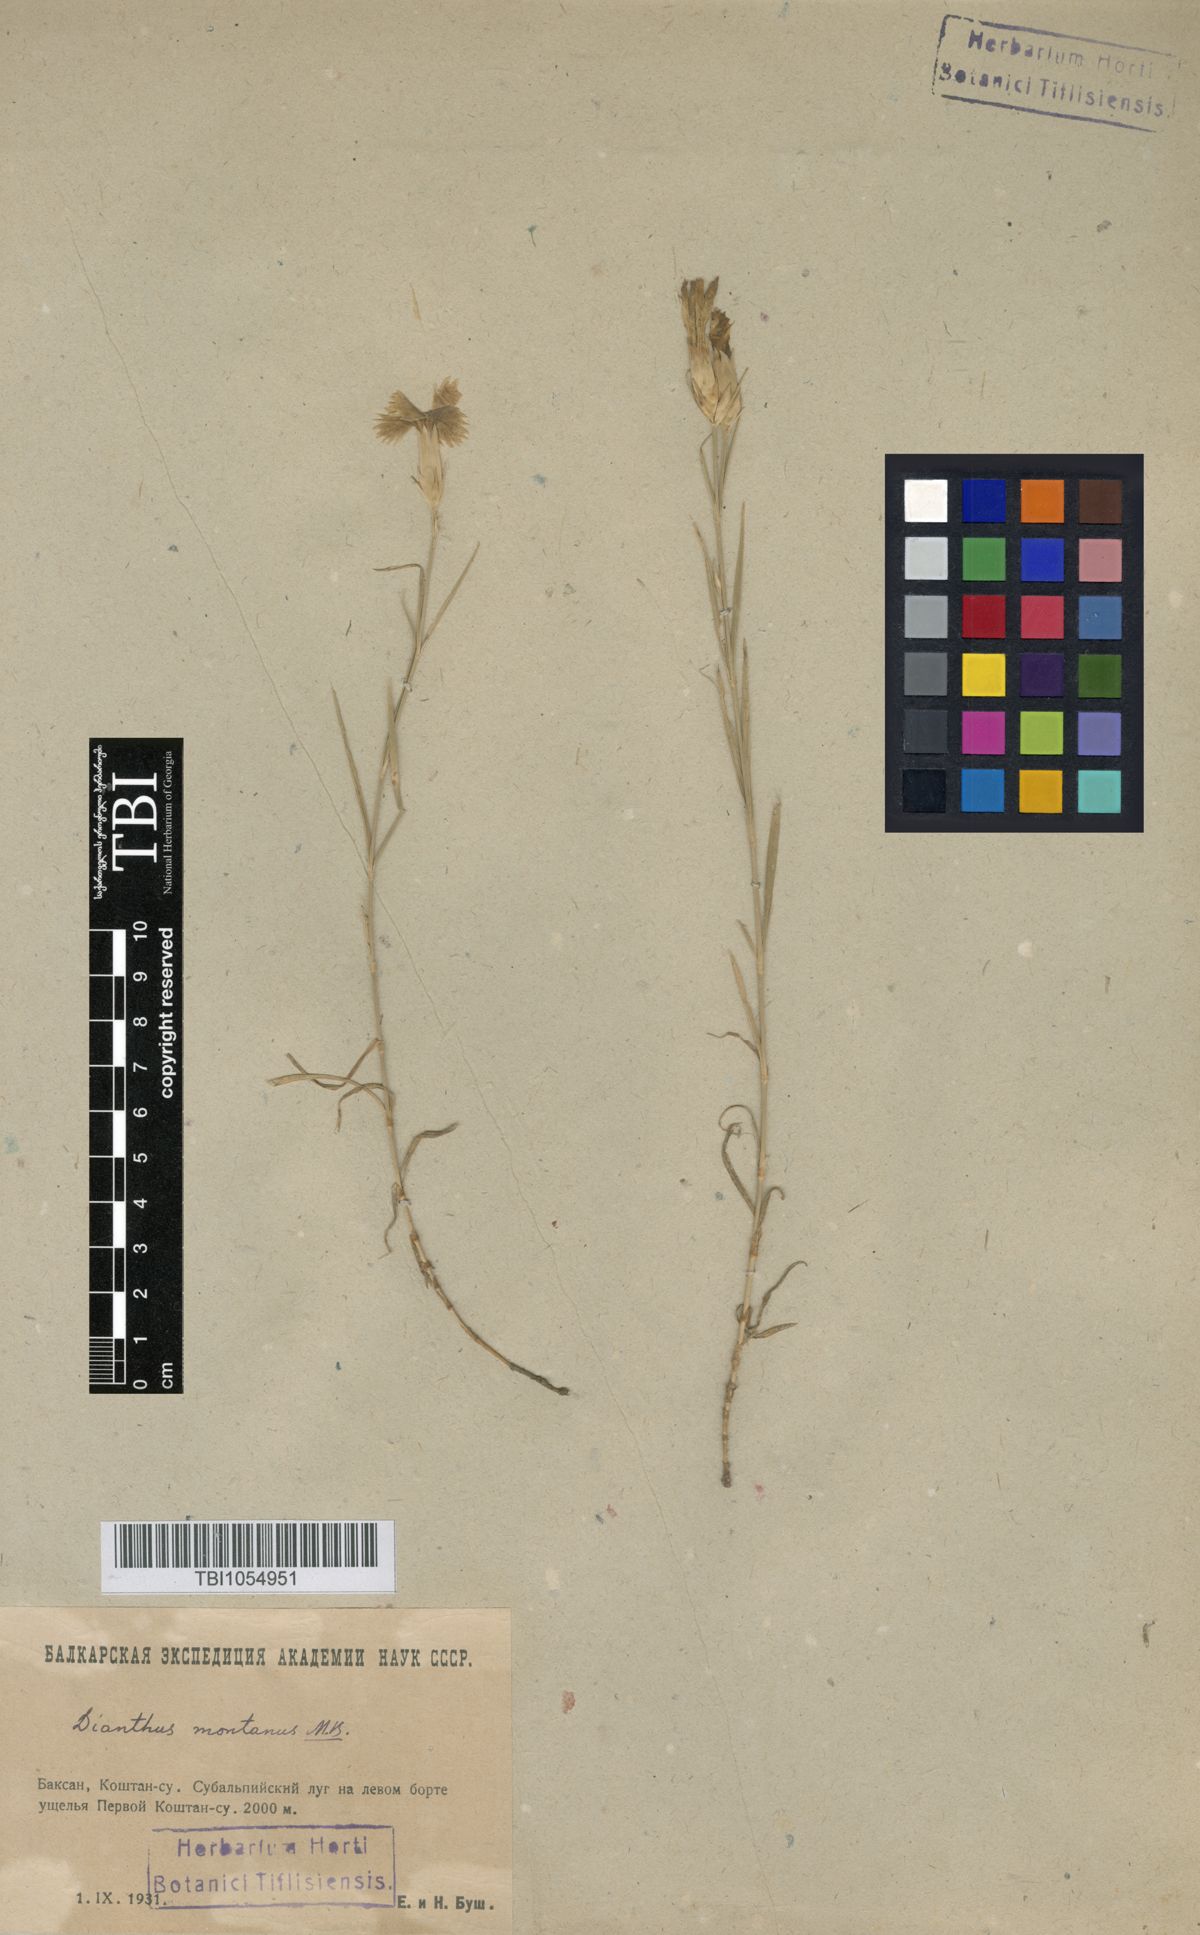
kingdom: Plantae
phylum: Tracheophyta
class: Magnoliopsida
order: Caryophyllales
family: Caryophyllaceae
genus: Dianthus
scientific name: Dianthus caucaseus
